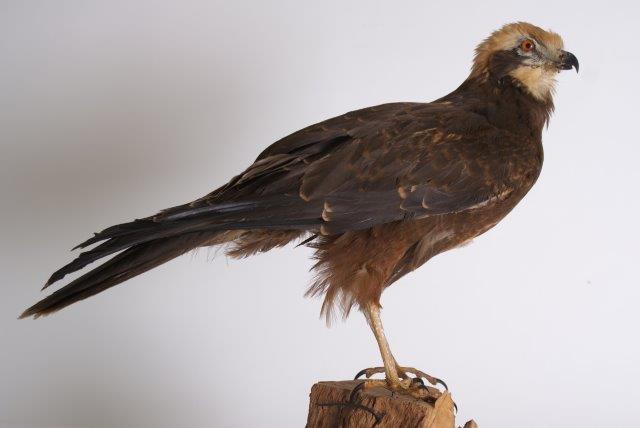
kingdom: Animalia
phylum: Chordata
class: Aves
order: Accipitriformes
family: Accipitridae
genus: Circus
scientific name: Circus aeruginosus
